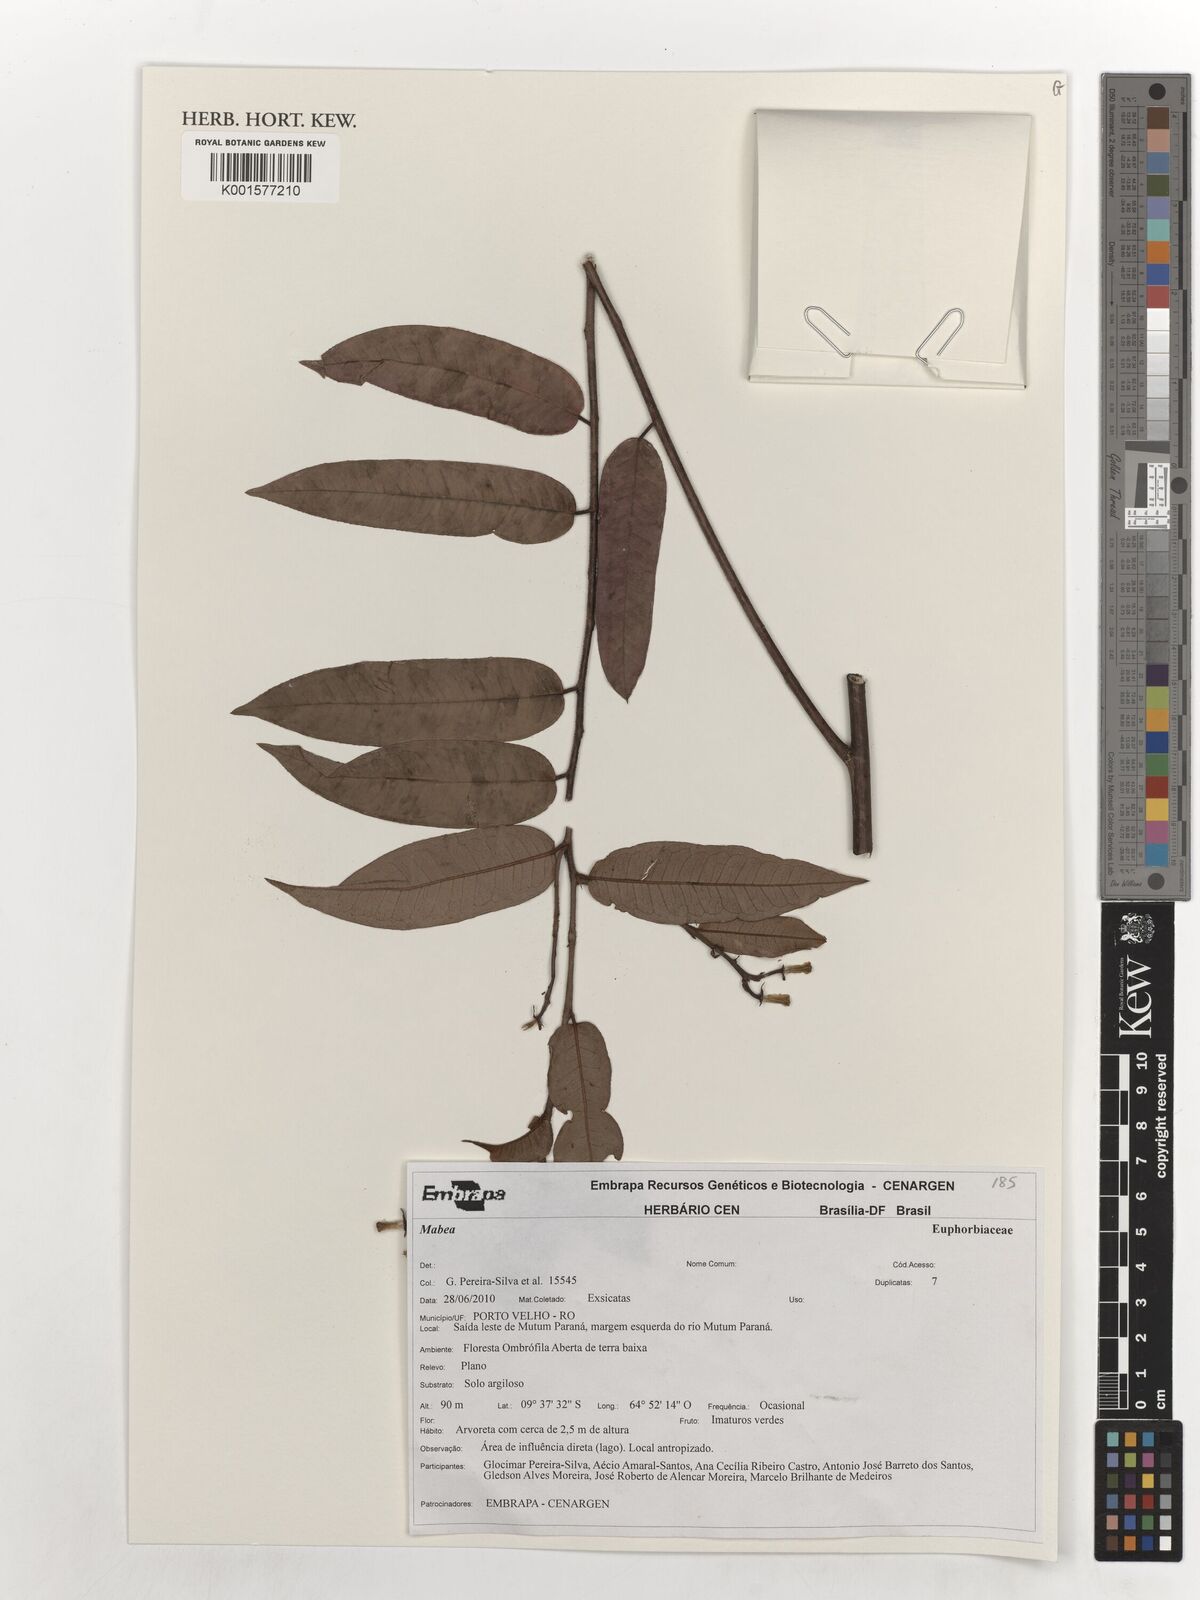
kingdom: Plantae
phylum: Tracheophyta
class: Magnoliopsida
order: Malpighiales
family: Euphorbiaceae
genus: Mabea
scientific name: Mabea
